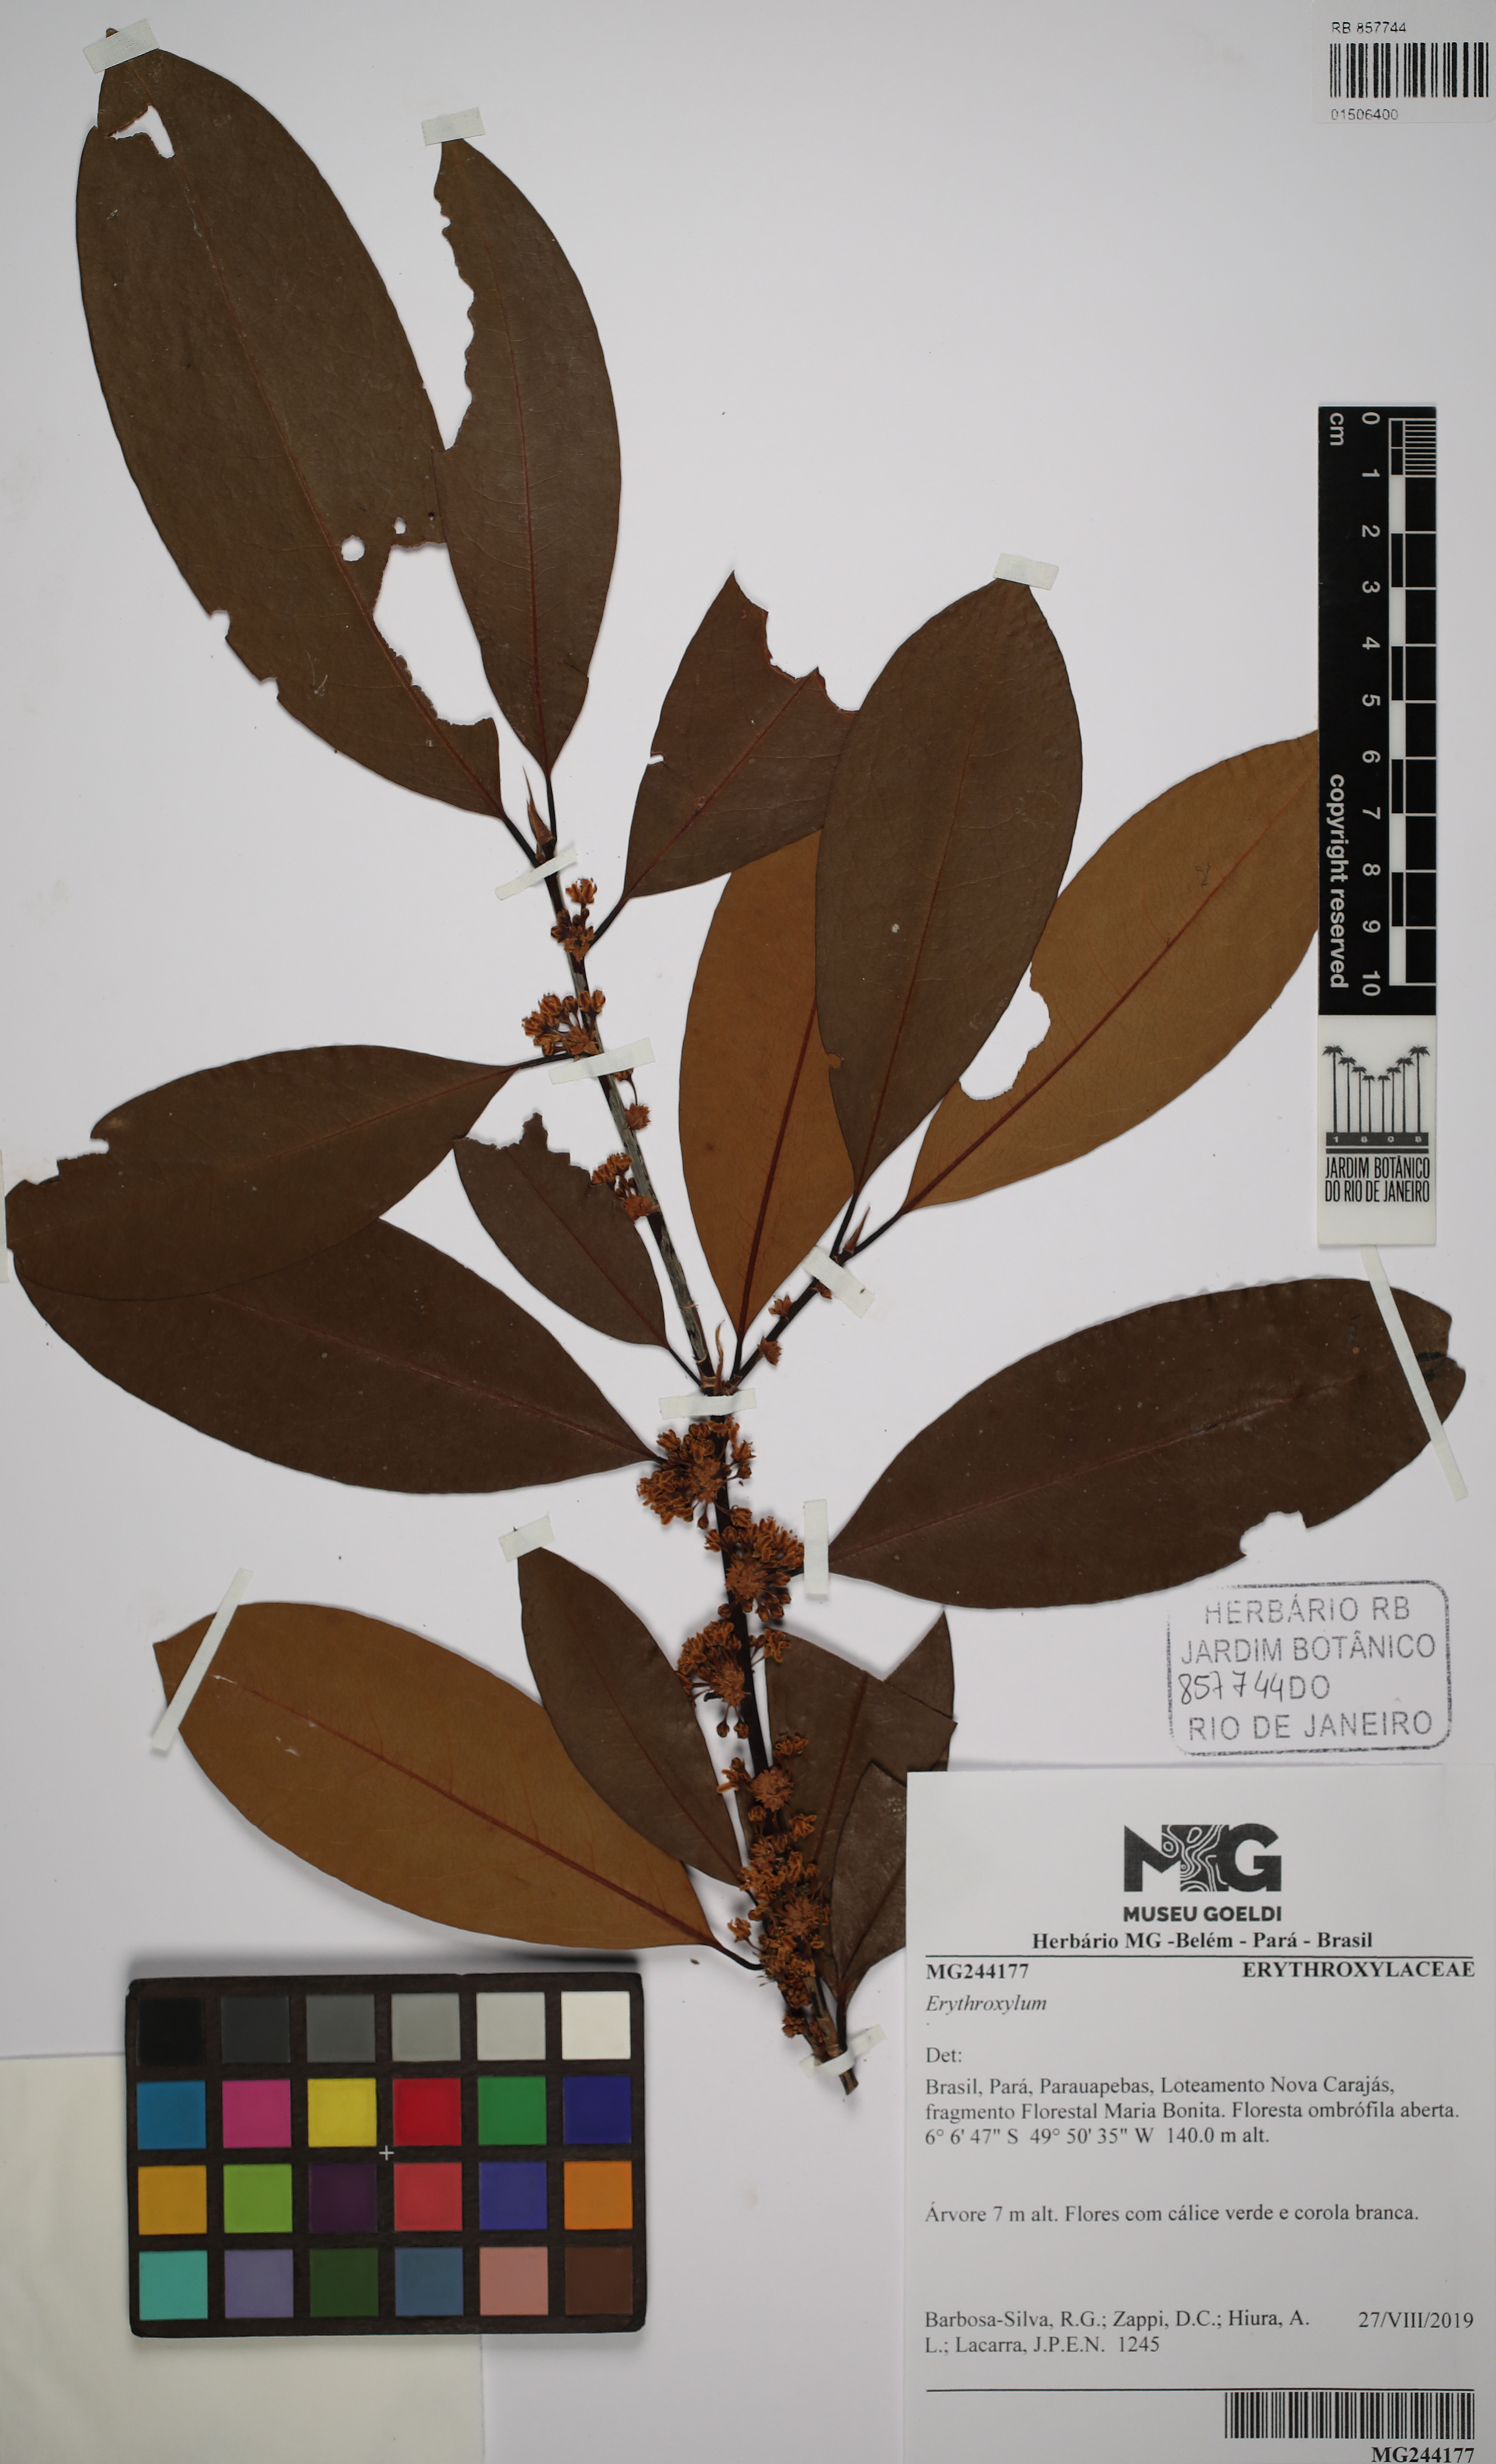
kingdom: Plantae
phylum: Tracheophyta
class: Magnoliopsida
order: Malpighiales
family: Erythroxylaceae
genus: Erythroxylum
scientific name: Erythroxylum
